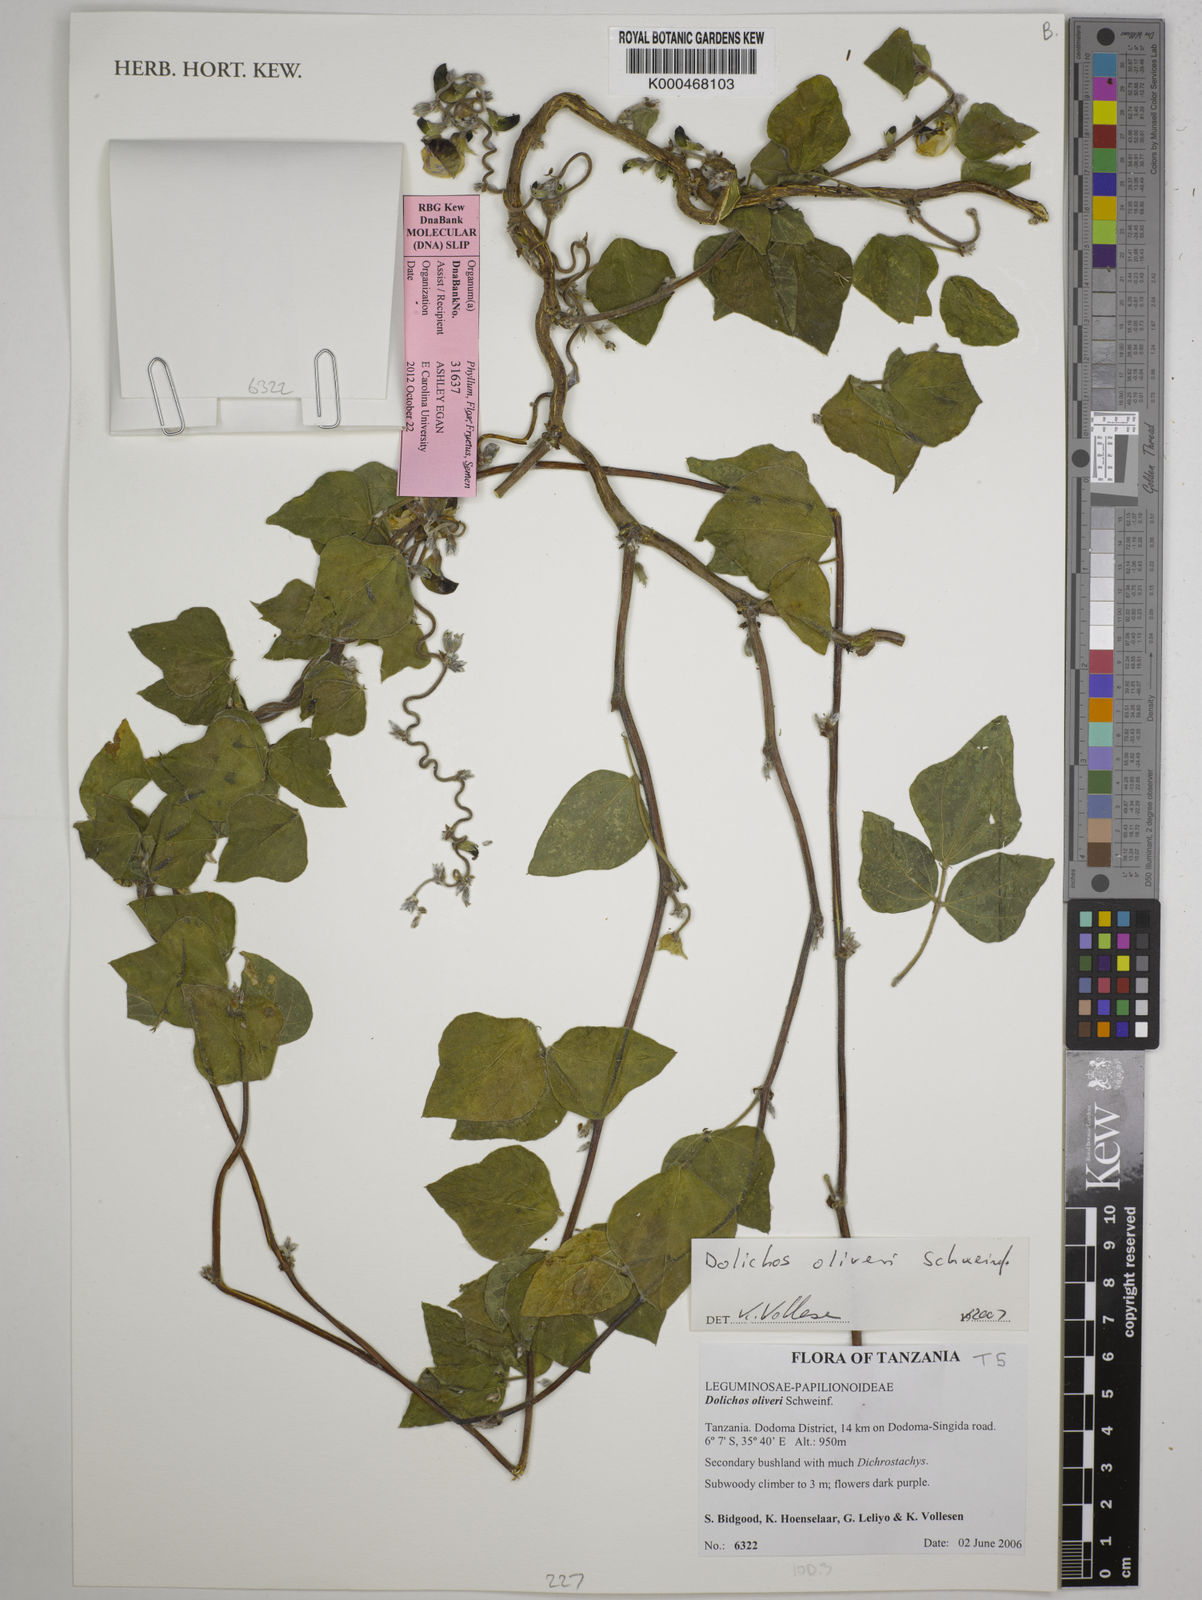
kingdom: Plantae
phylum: Tracheophyta
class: Magnoliopsida
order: Fabales
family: Fabaceae
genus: Dolichos
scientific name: Dolichos oliveri
